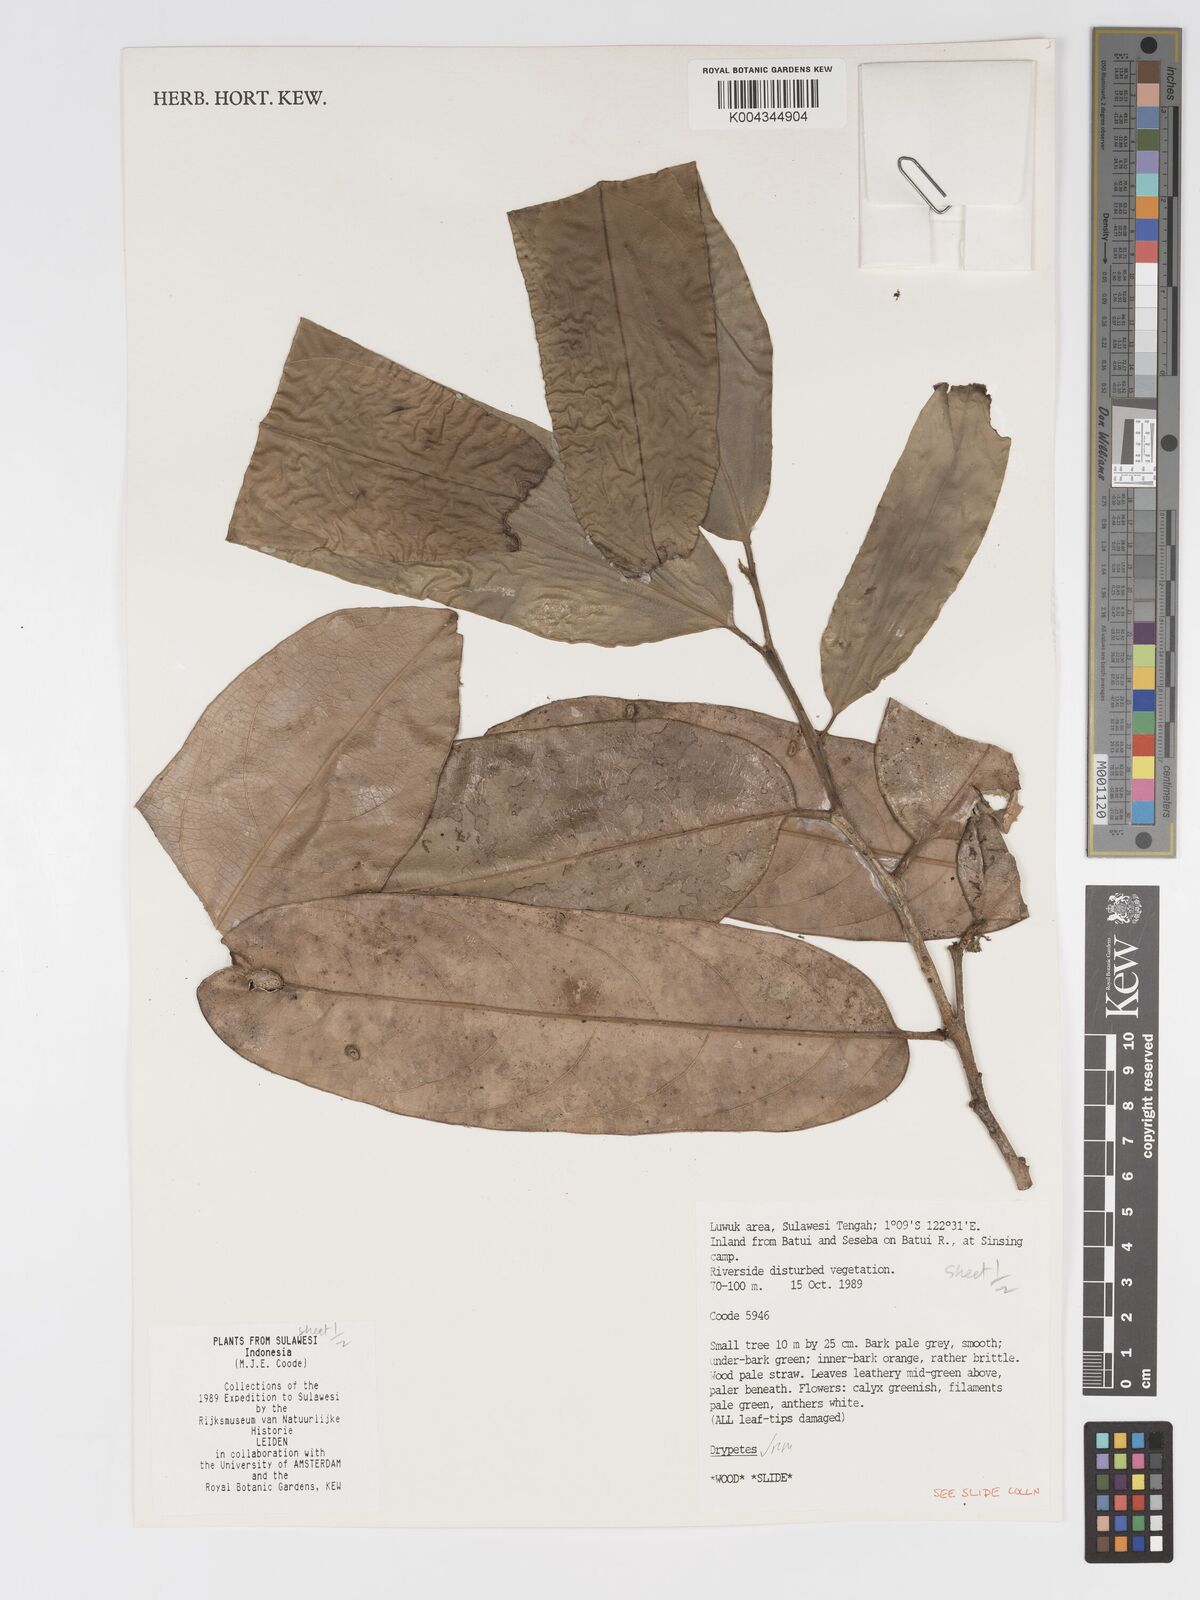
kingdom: Plantae
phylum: Tracheophyta
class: Magnoliopsida
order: Malpighiales
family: Putranjivaceae
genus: Drypetes
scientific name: Drypetes
